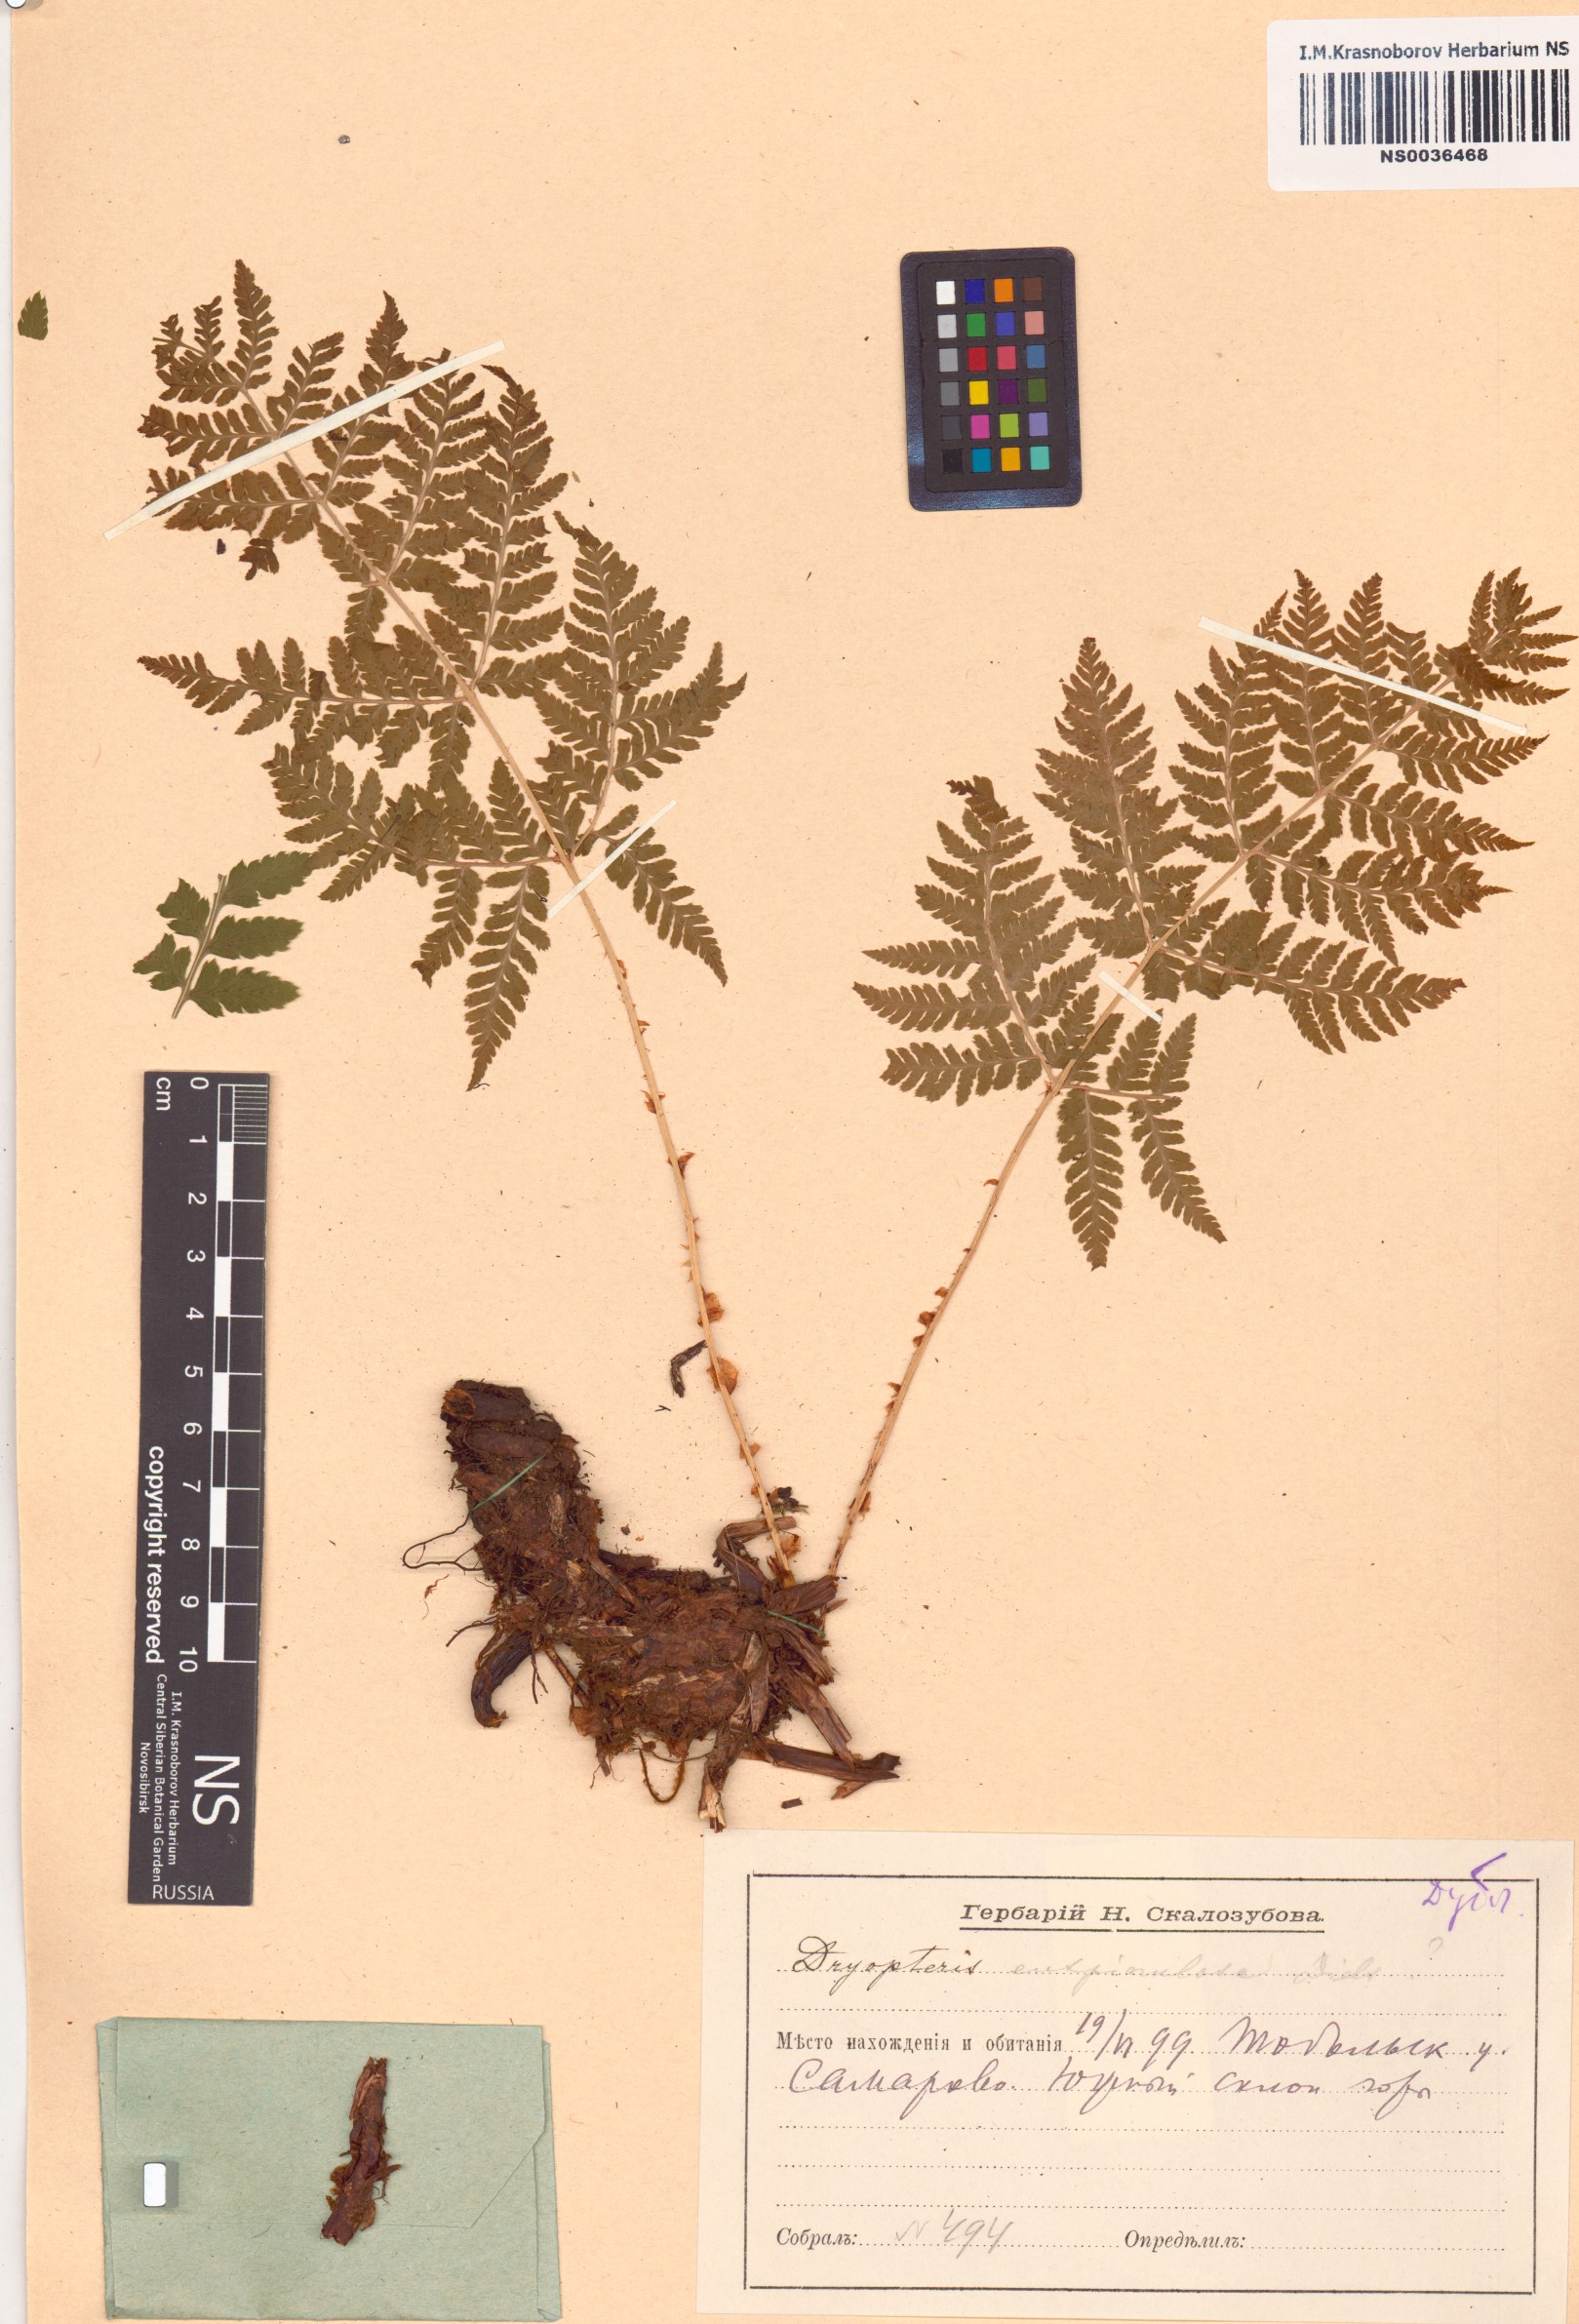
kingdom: Plantae
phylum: Tracheophyta
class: Polypodiopsida
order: Polypodiales
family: Dryopteridaceae
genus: Dryopteris
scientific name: Dryopteris carthusiana
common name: Narrow buckler-fern
